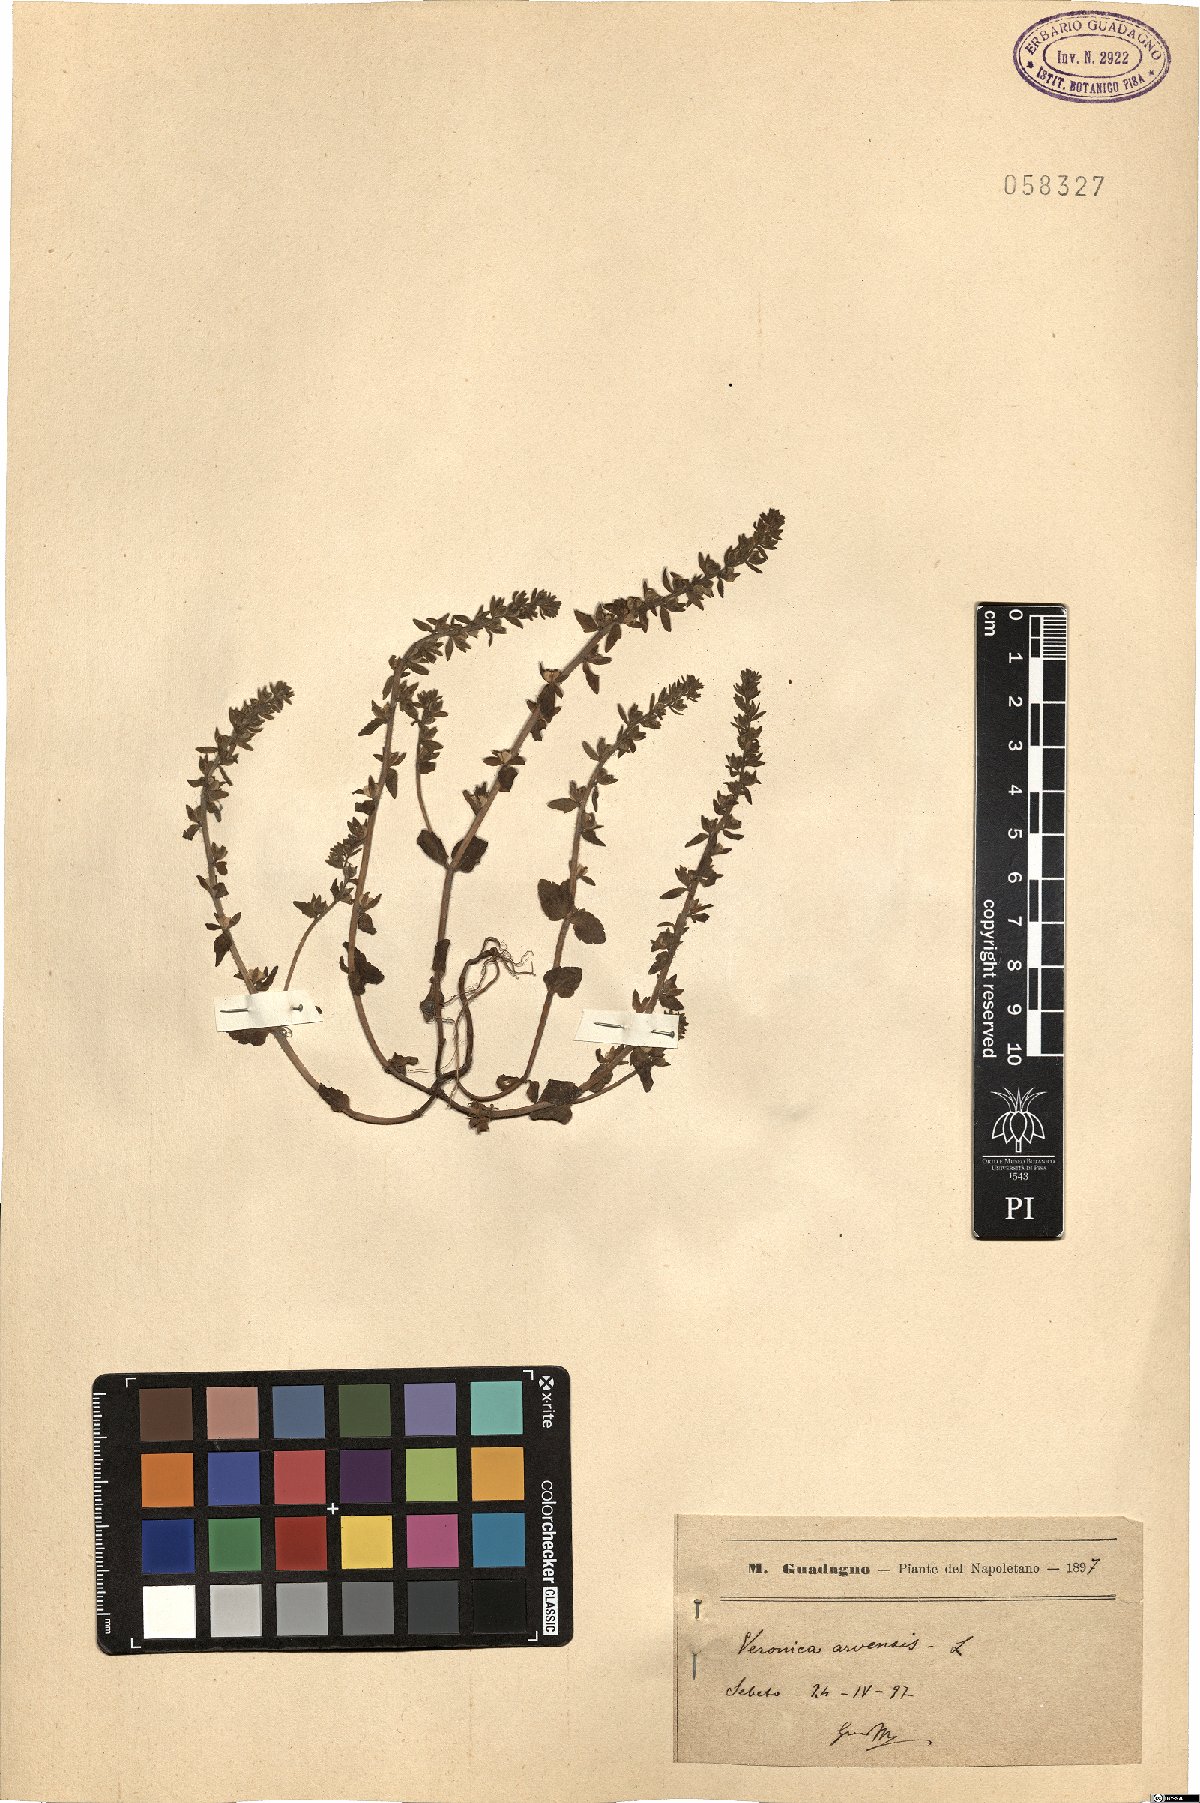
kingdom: Plantae
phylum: Tracheophyta
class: Magnoliopsida
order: Lamiales
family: Plantaginaceae
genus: Veronica
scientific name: Veronica arvensis
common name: Corn speedwell
